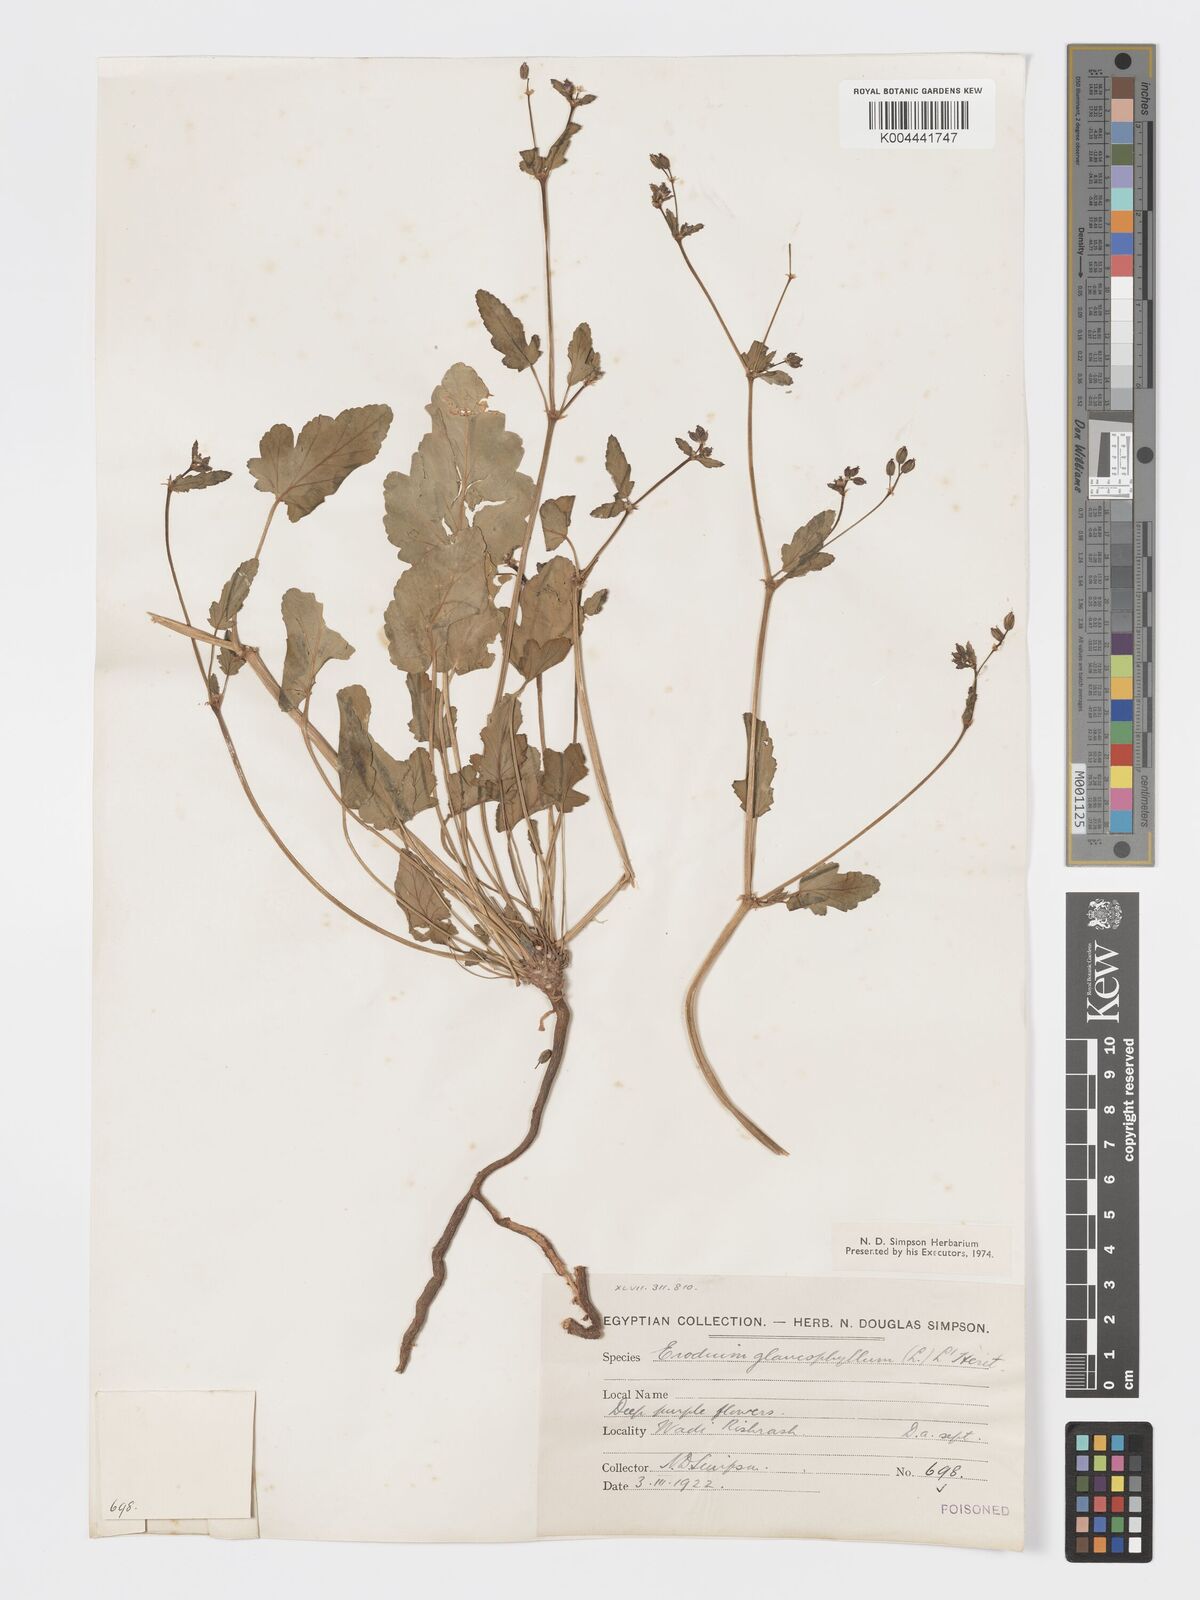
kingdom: Plantae
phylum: Tracheophyta
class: Magnoliopsida
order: Geraniales
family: Geraniaceae
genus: Erodium
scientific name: Erodium glaucophyllum
